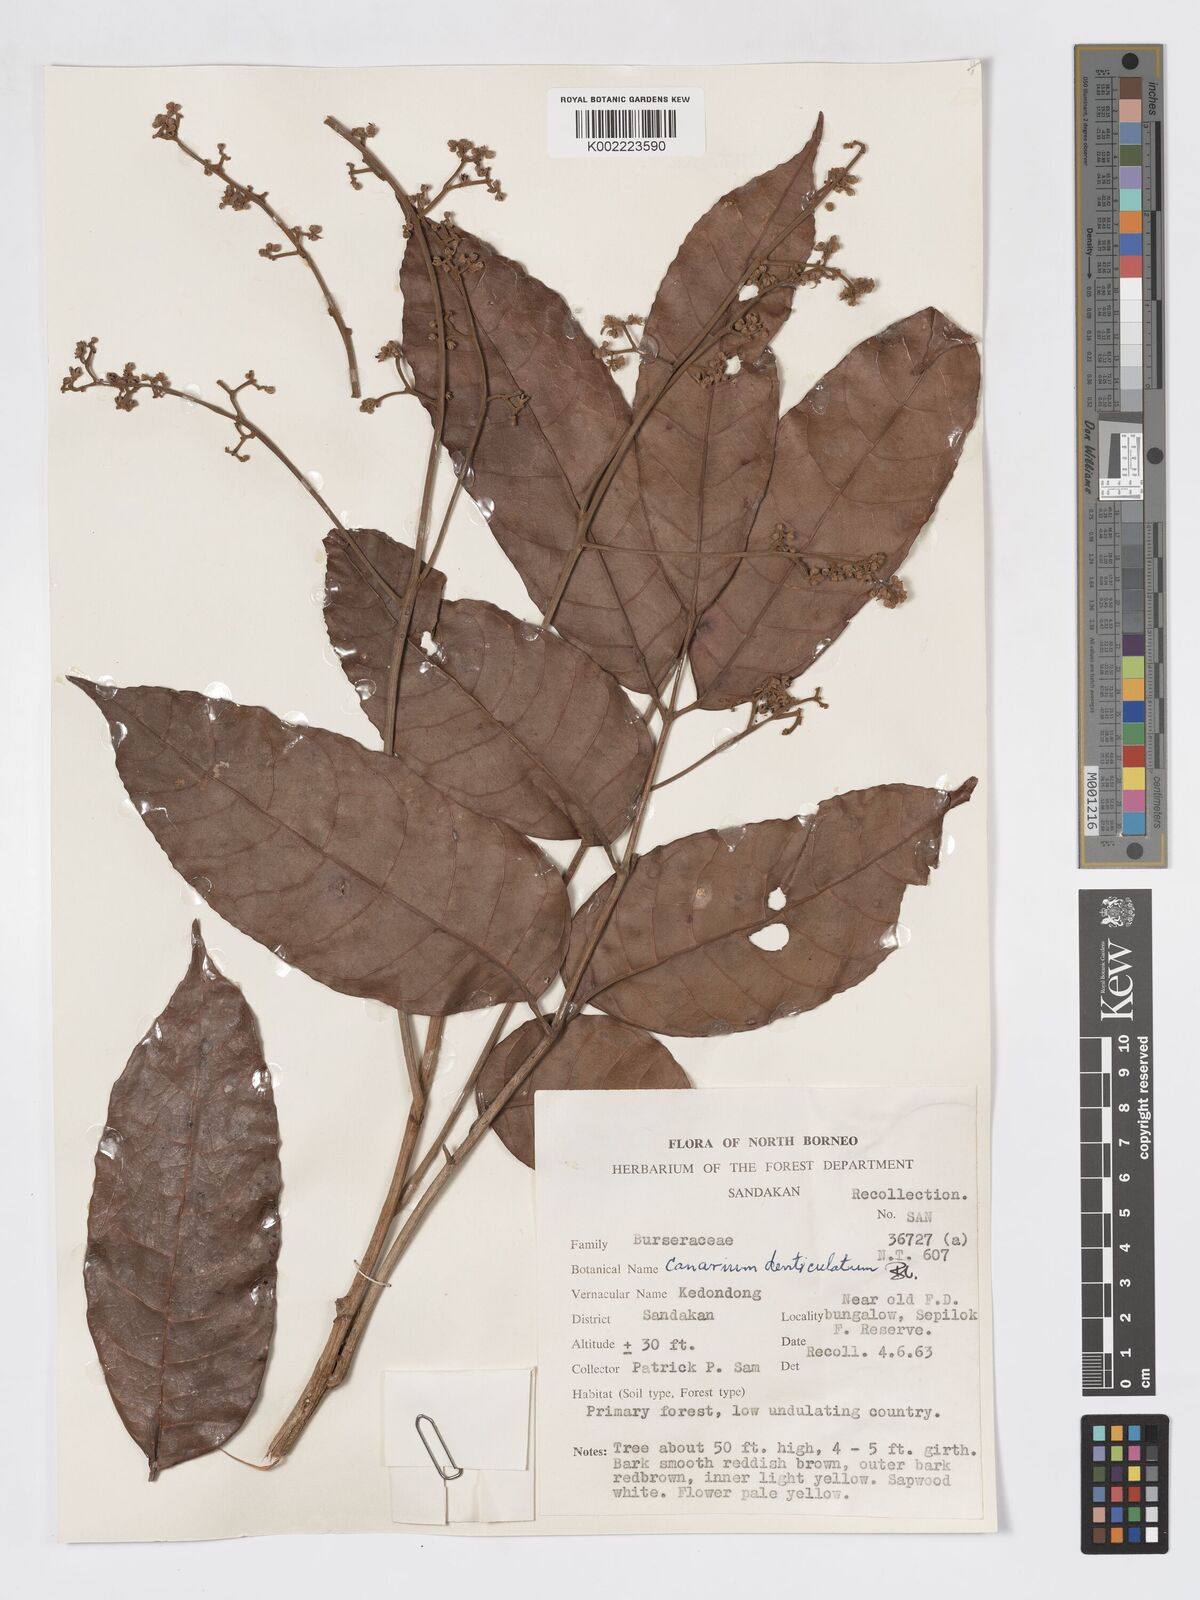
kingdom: Plantae
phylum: Tracheophyta
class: Magnoliopsida
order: Sapindales
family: Burseraceae
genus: Canarium
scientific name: Canarium denticulatum
